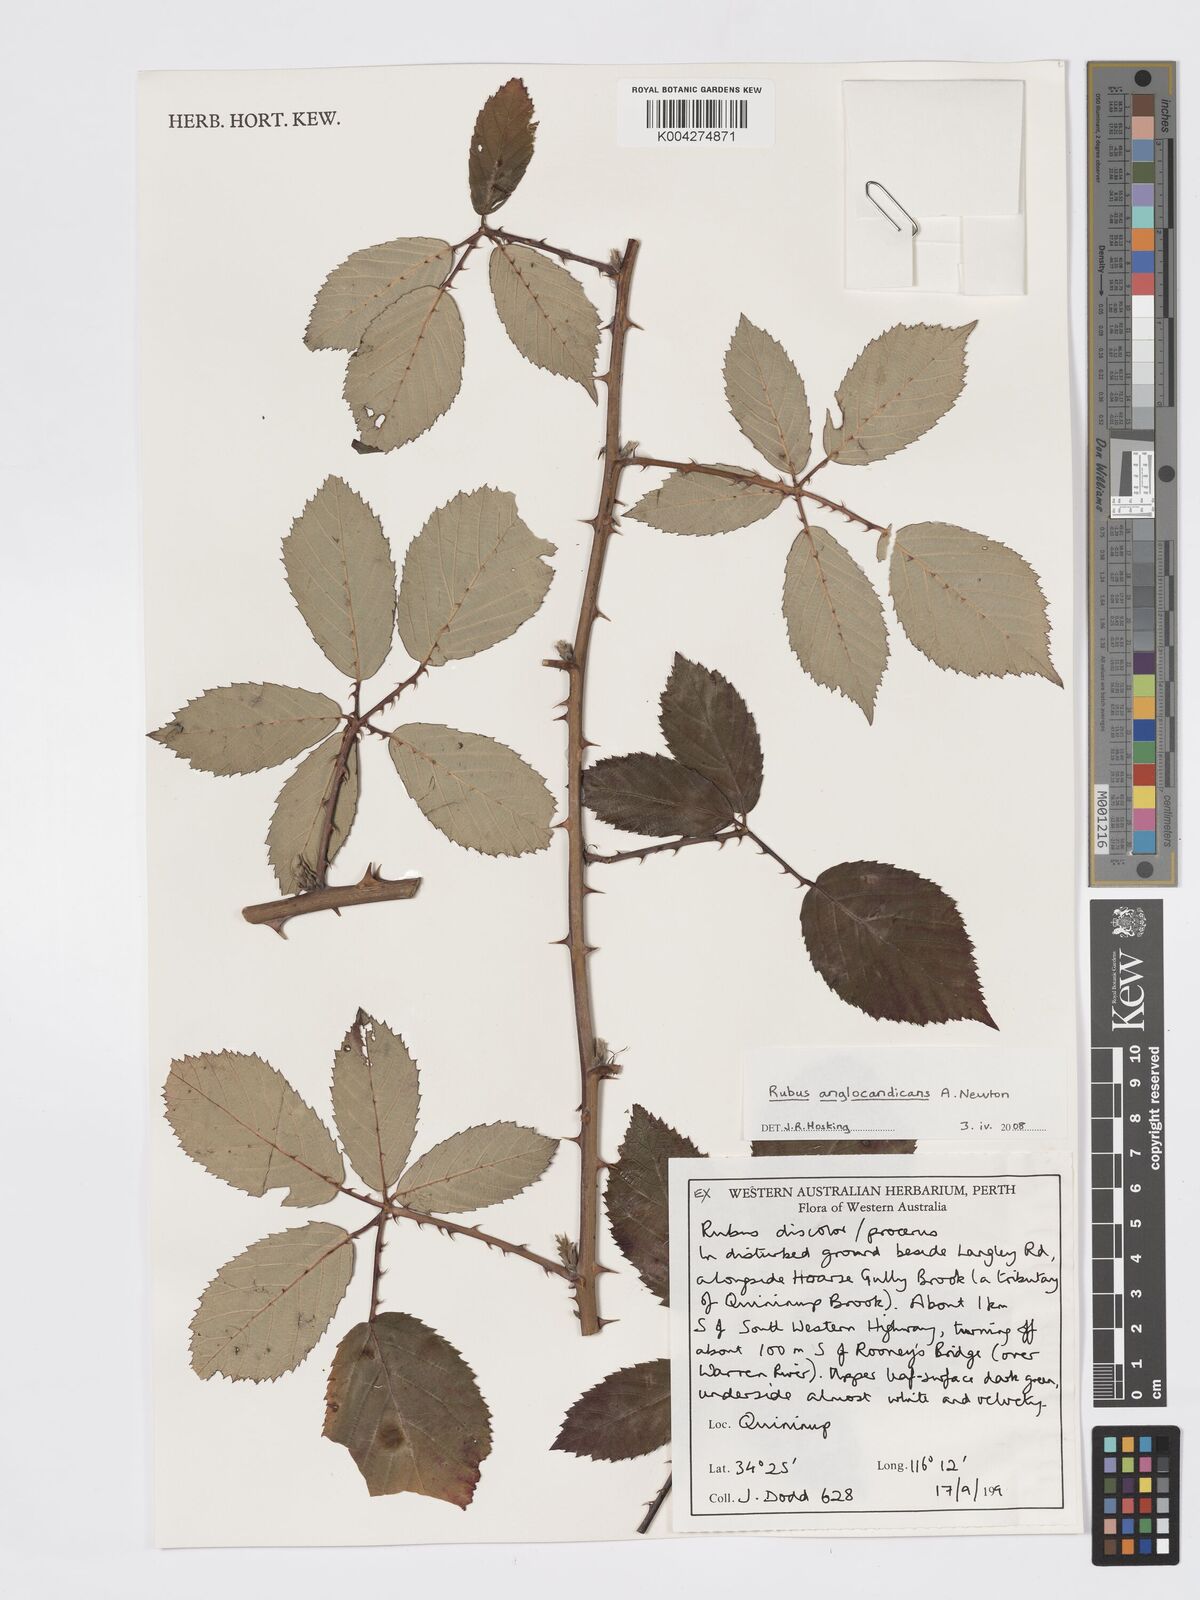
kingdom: Plantae
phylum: Tracheophyta
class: Magnoliopsida
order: Rosales
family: Rosaceae
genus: Rubus
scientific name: Rubus anglocandicans
